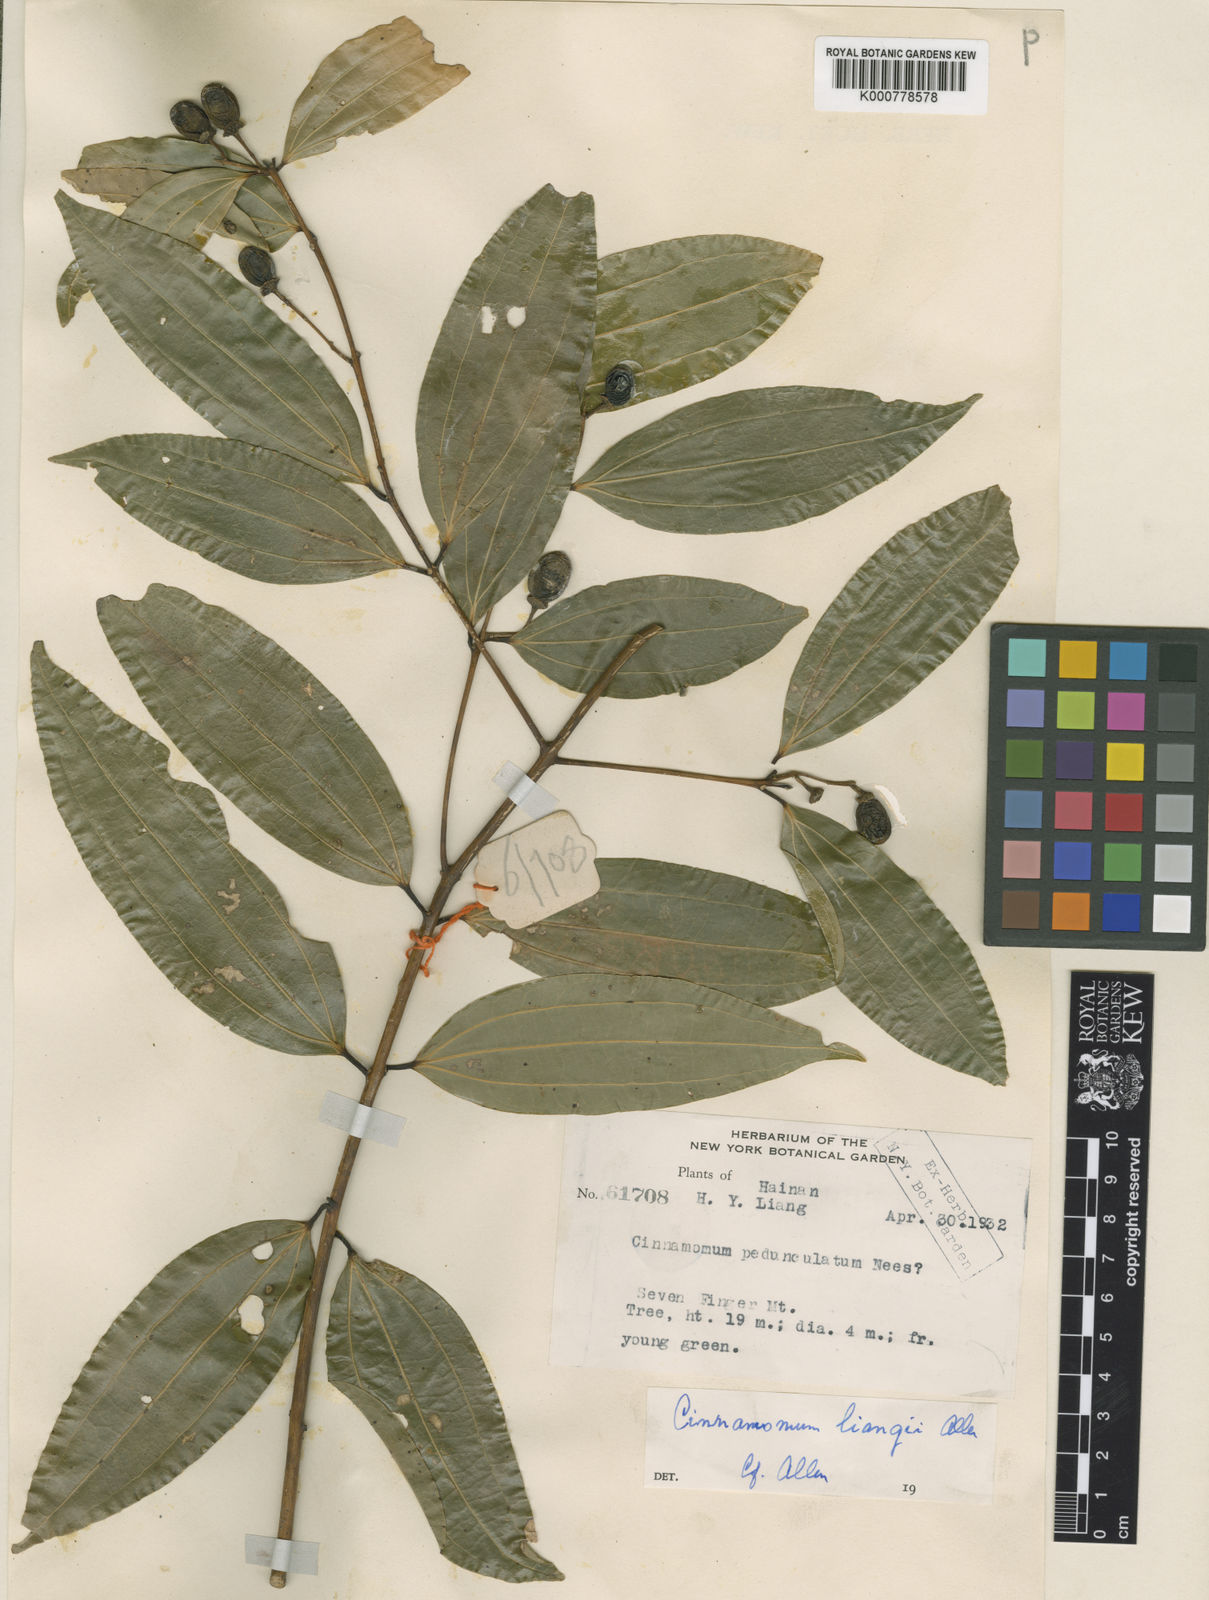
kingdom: Plantae
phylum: Tracheophyta
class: Magnoliopsida
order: Laurales
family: Lauraceae
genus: Cinnamomum
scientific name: Cinnamomum liangii
